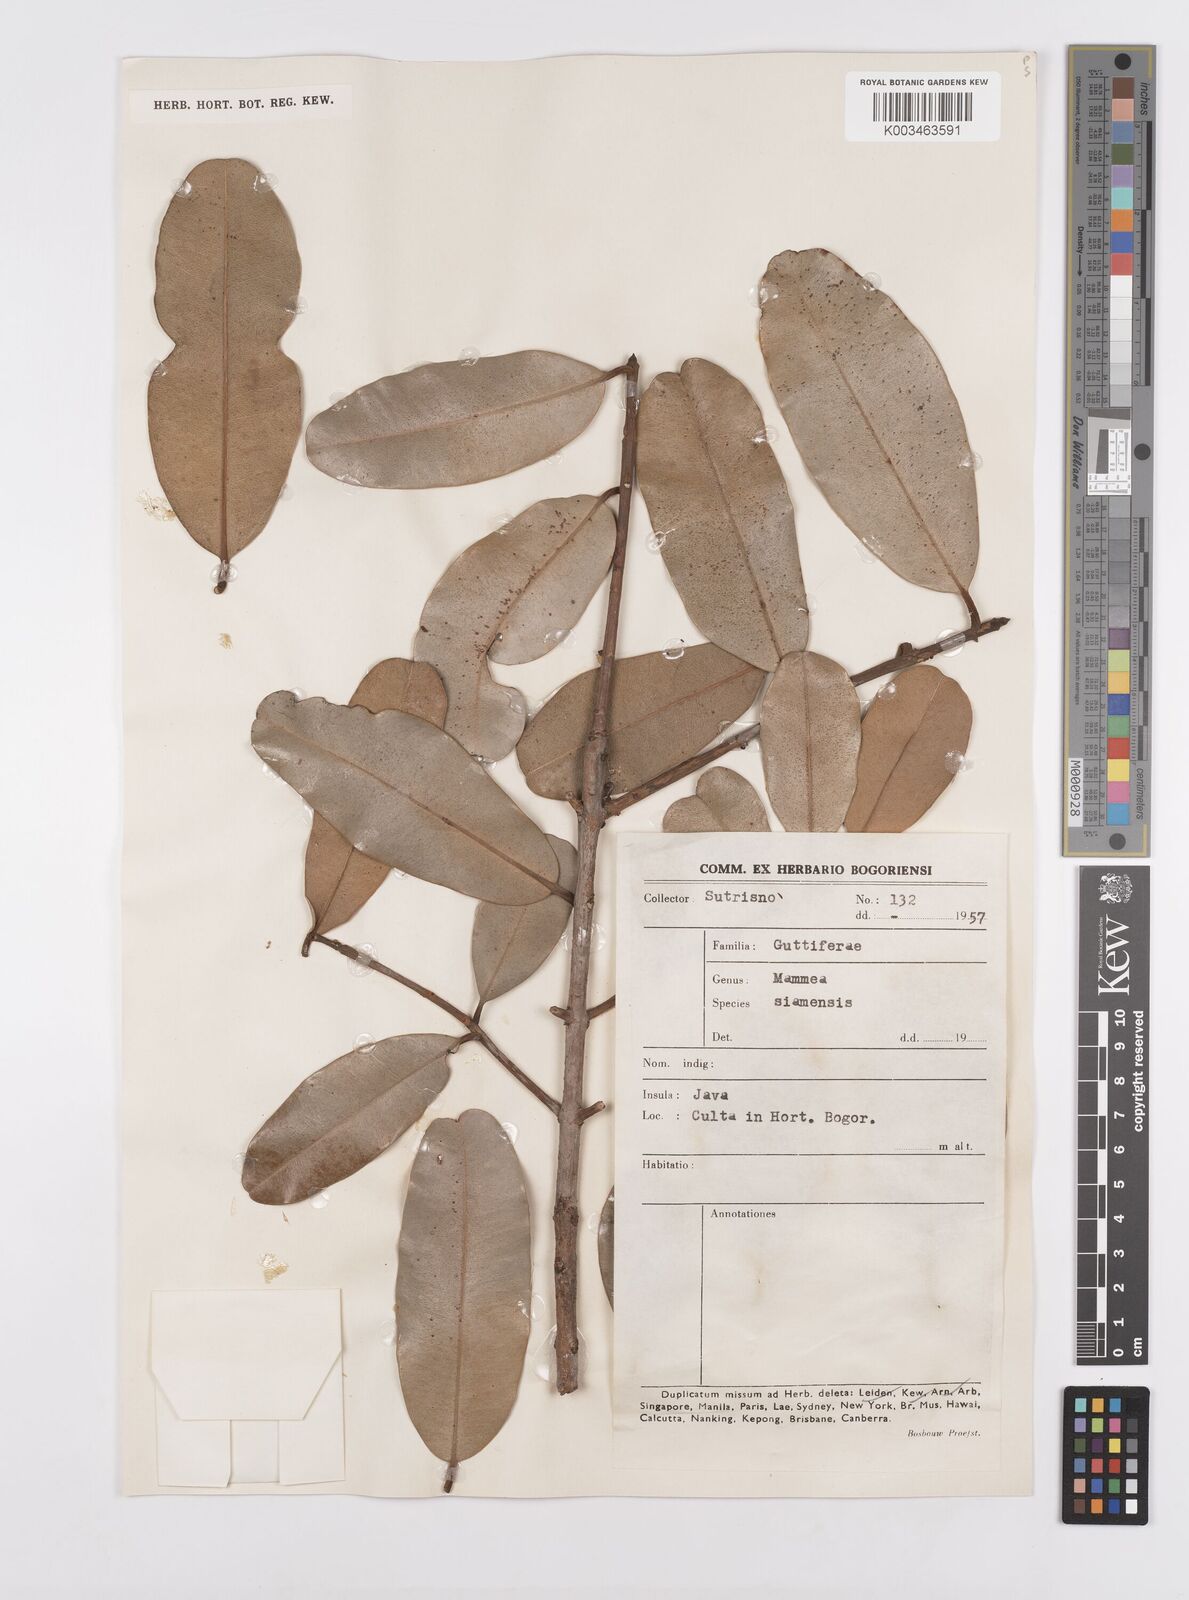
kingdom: Plantae
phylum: Tracheophyta
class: Magnoliopsida
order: Malpighiales
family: Calophyllaceae
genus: Mammea
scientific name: Mammea siamensis
